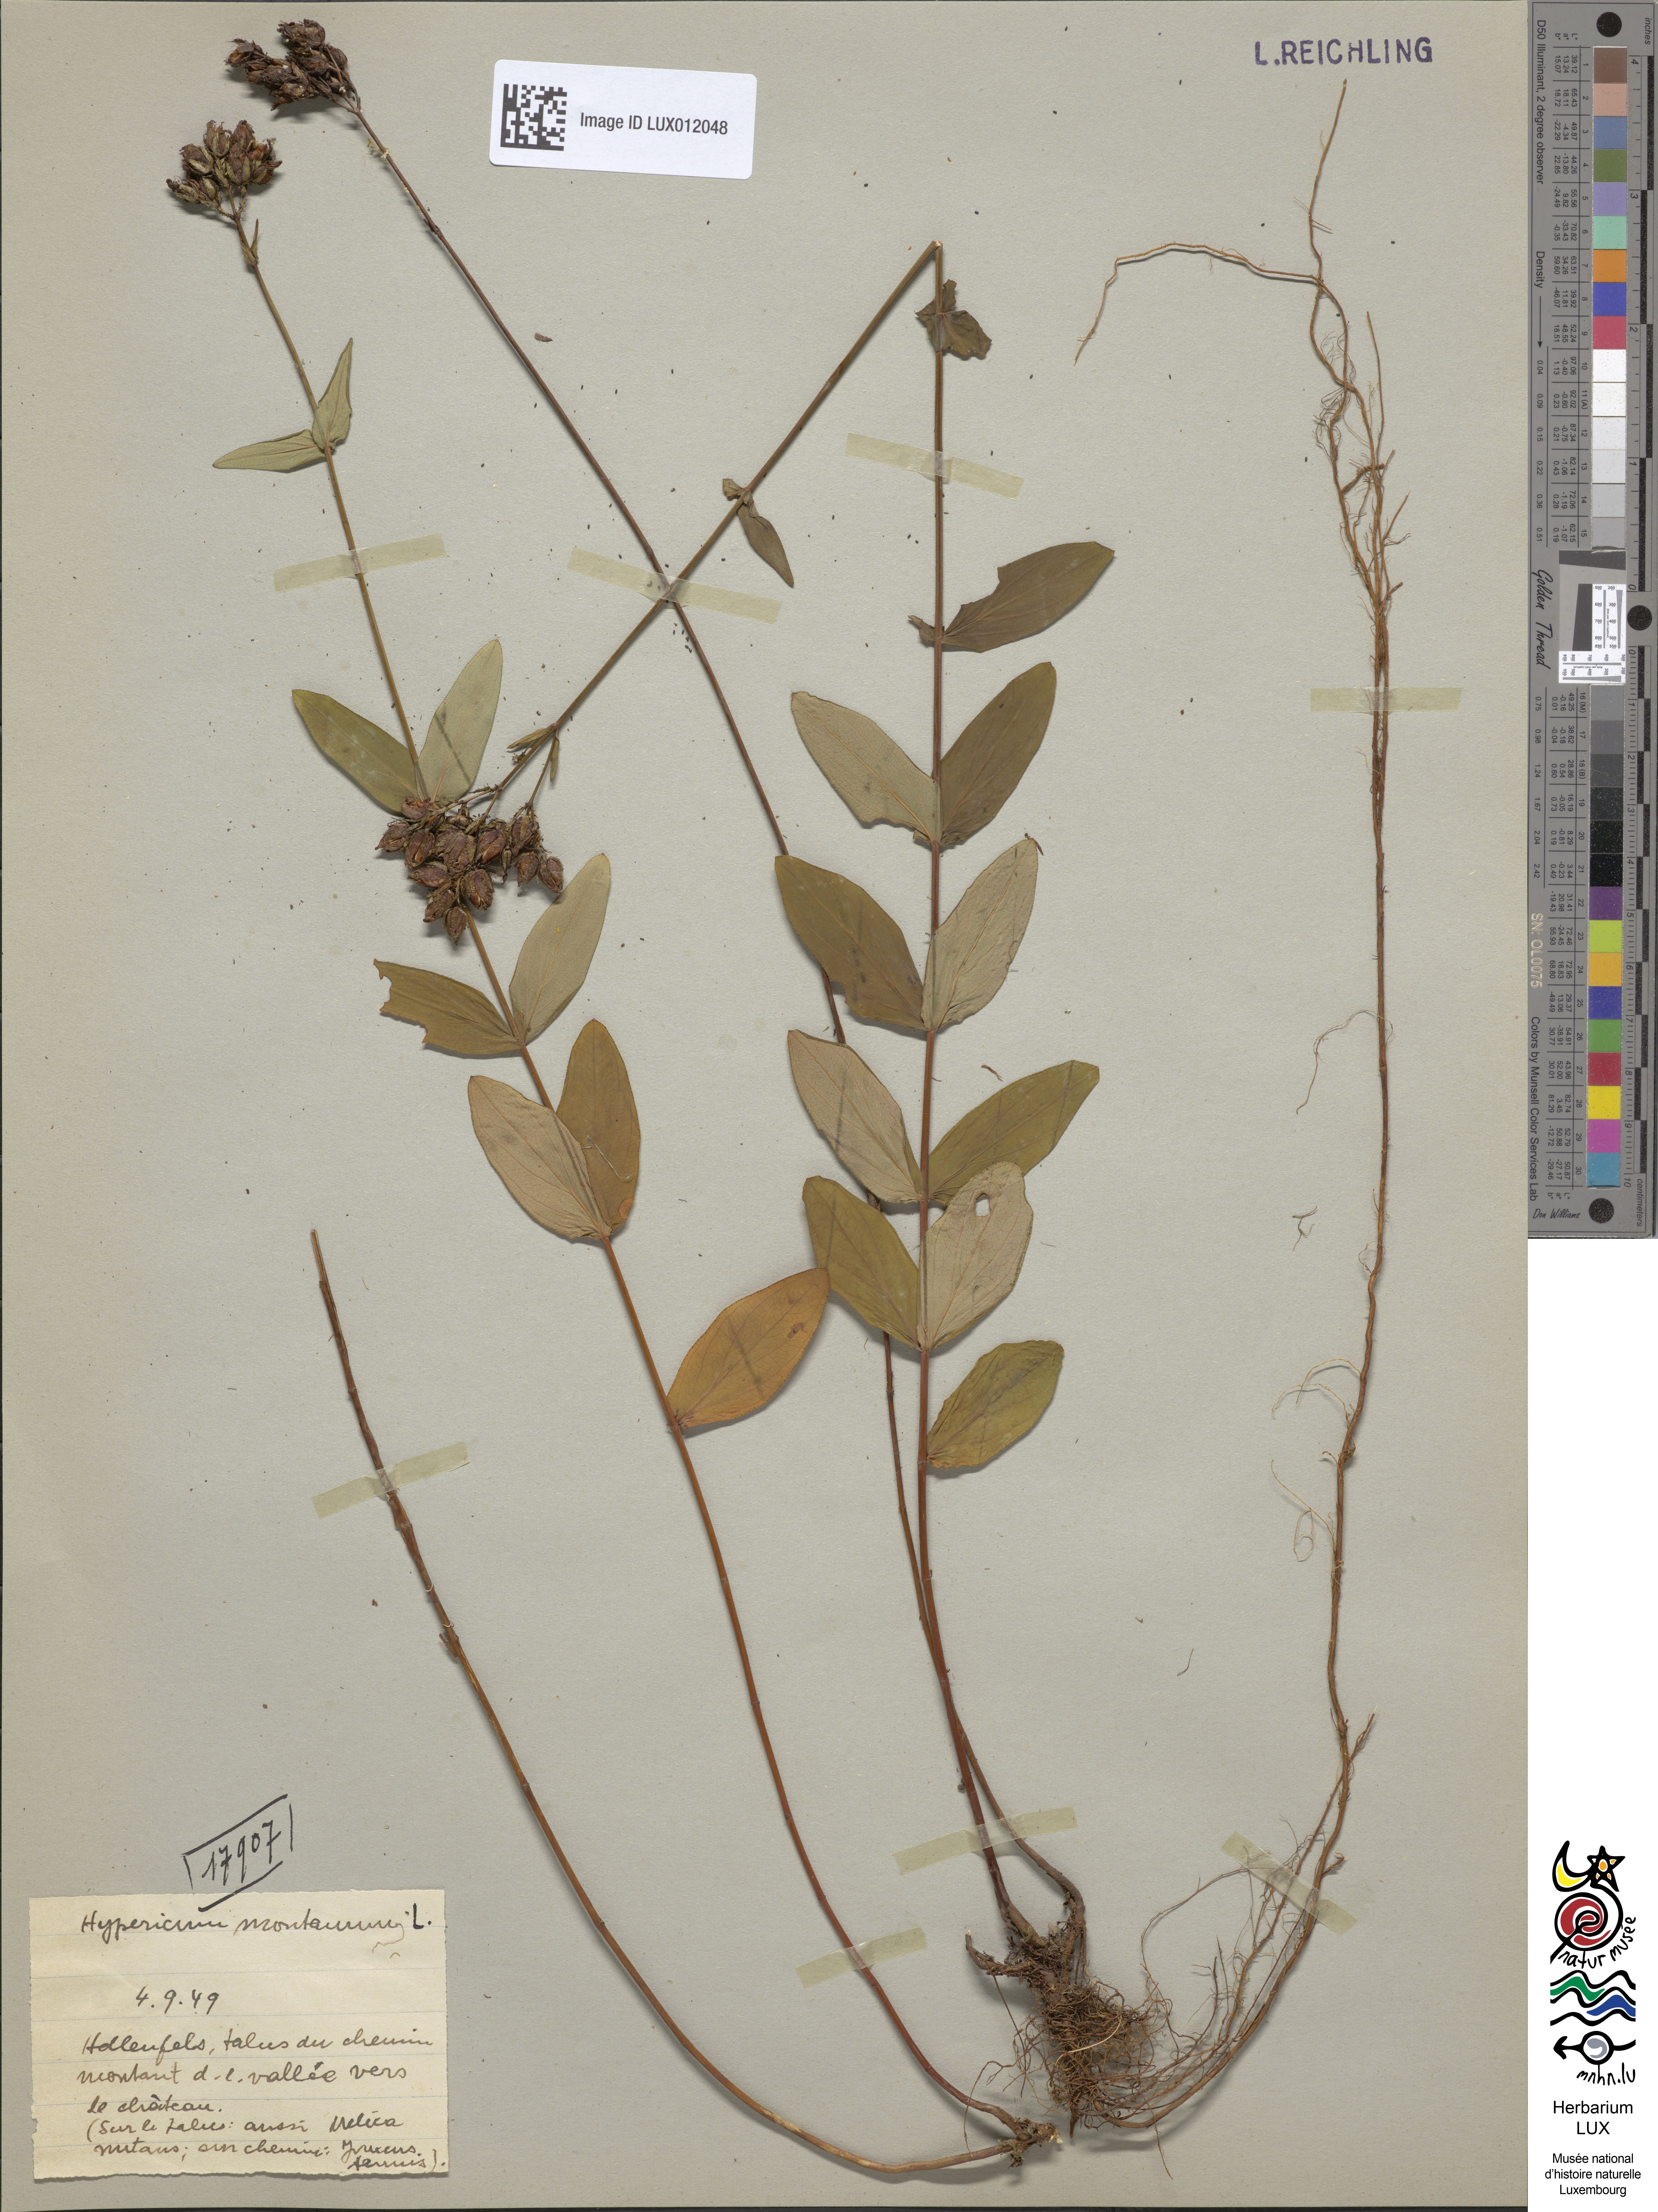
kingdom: Plantae
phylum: Tracheophyta
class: Magnoliopsida
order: Malpighiales
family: Hypericaceae
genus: Hypericum
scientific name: Hypericum montanum
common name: Pale st. john's-wort
